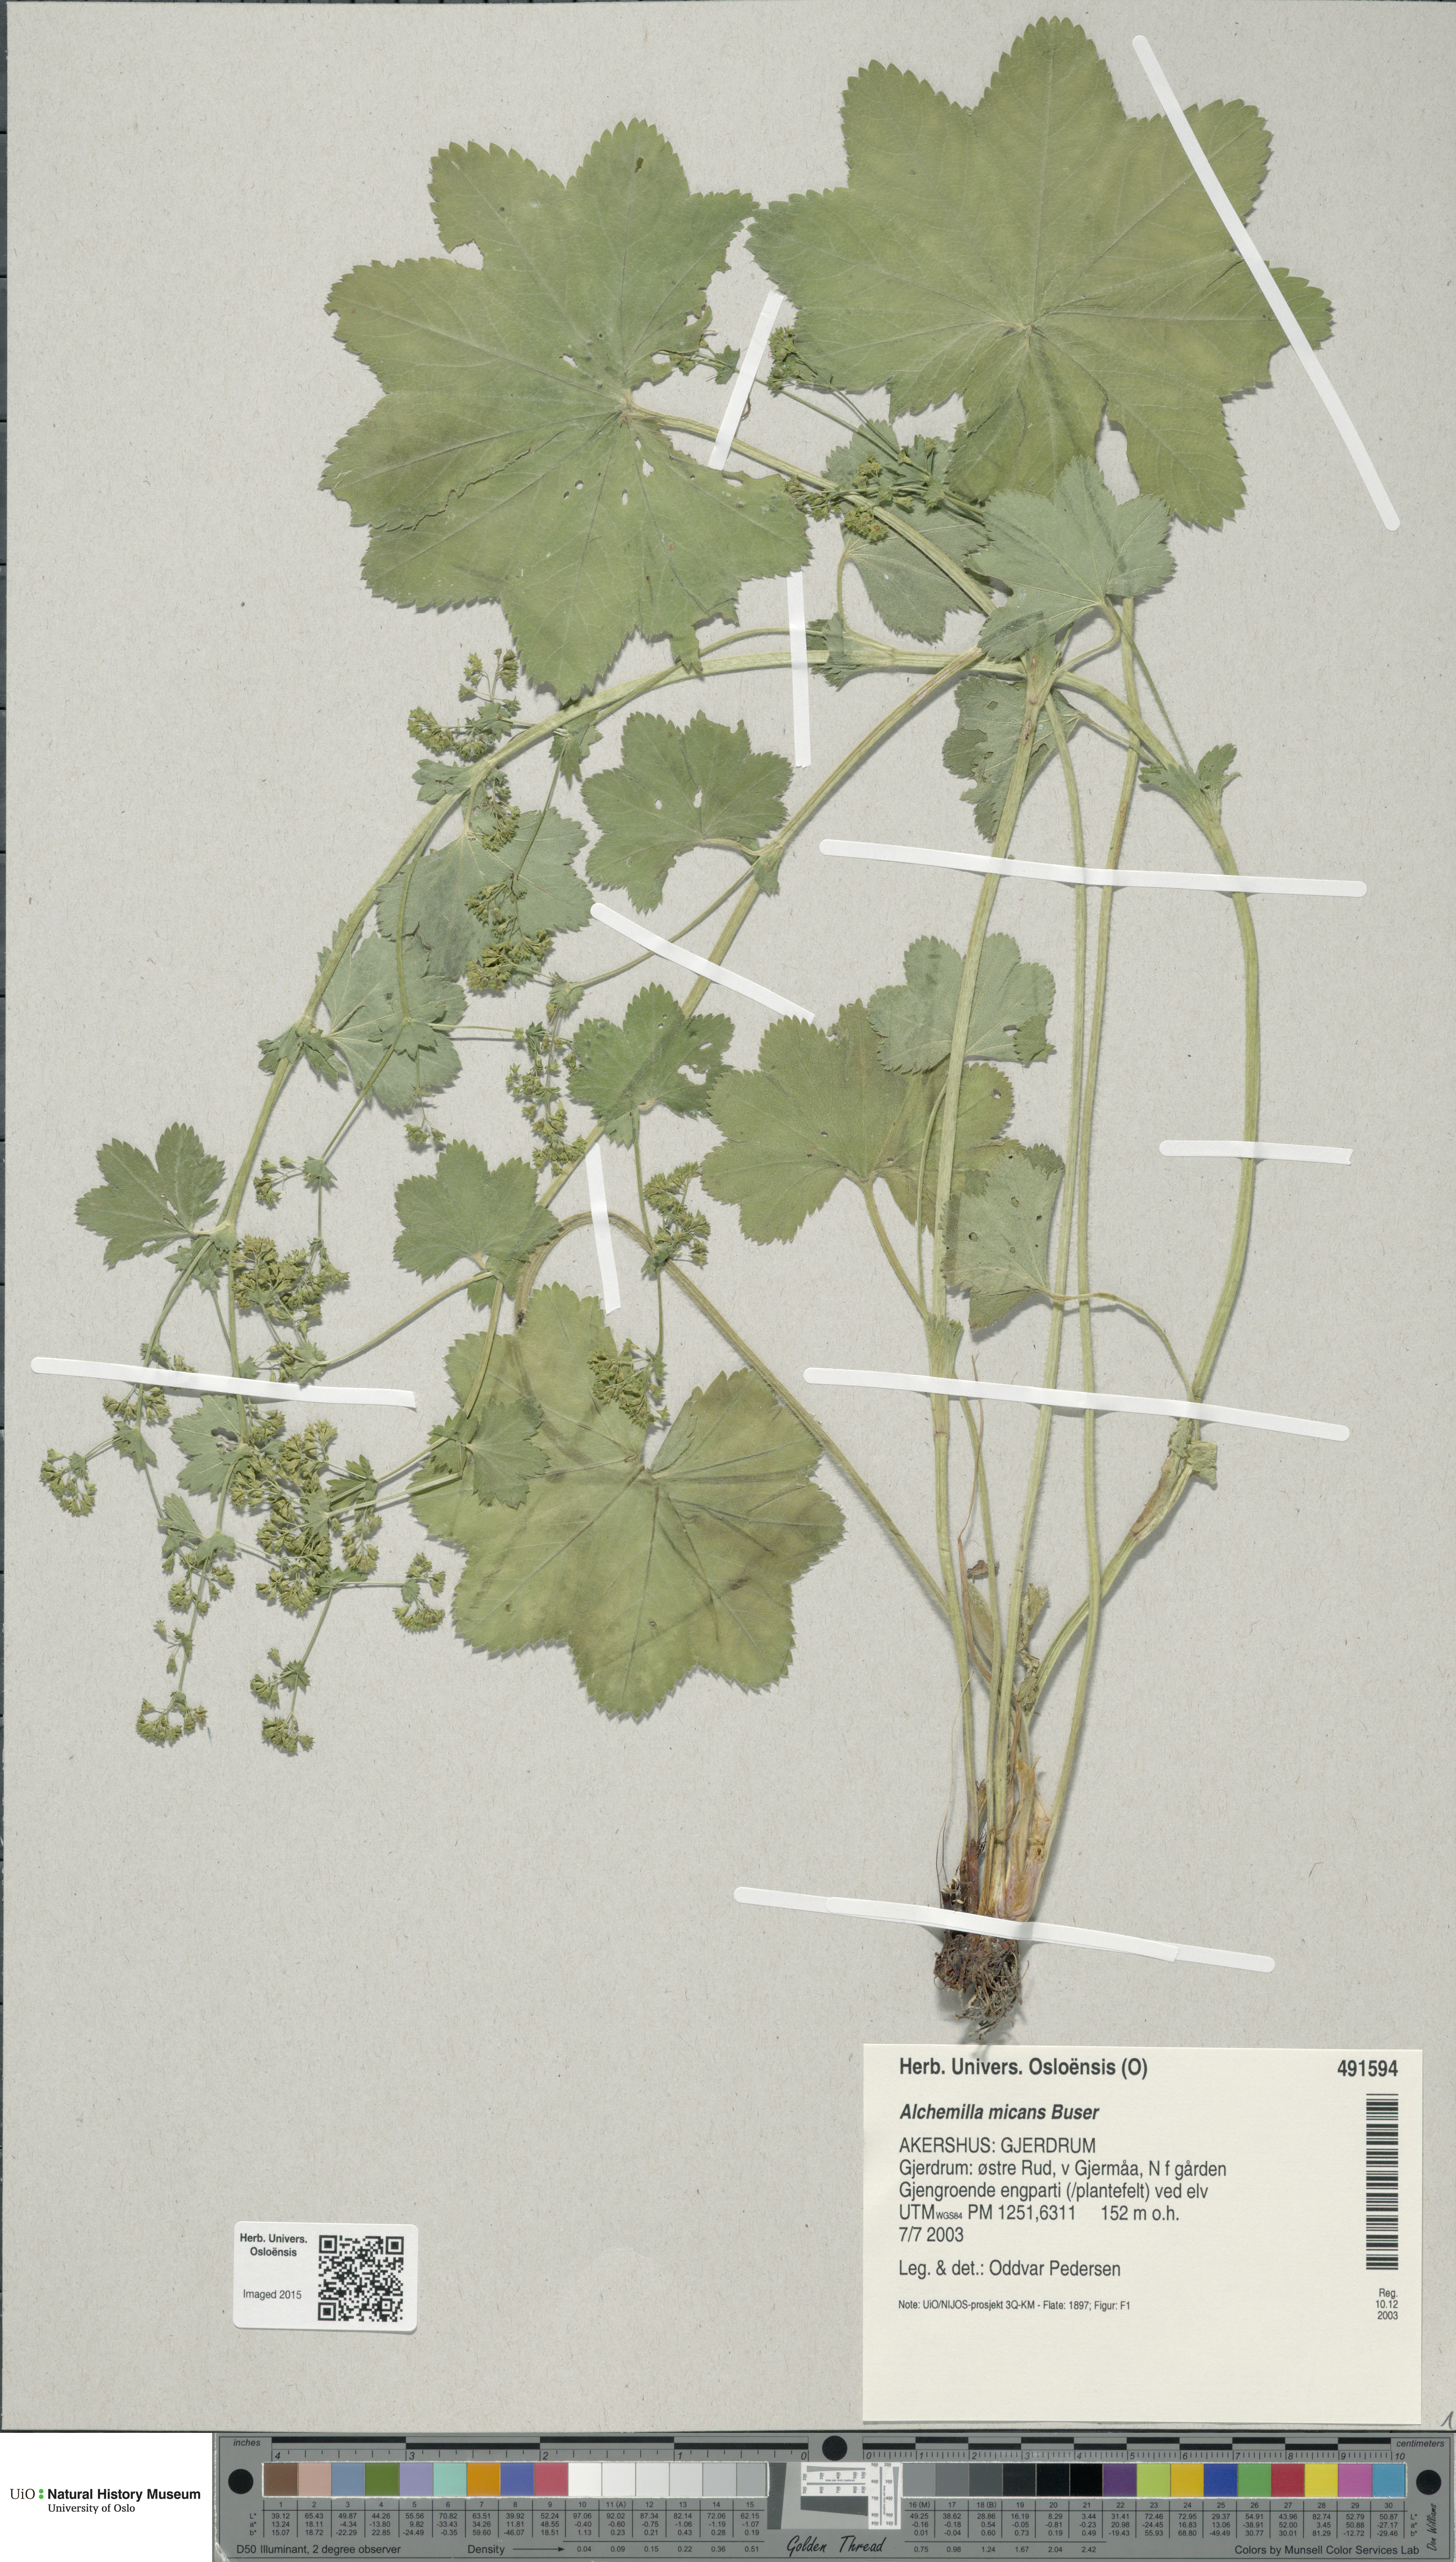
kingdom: Plantae
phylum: Tracheophyta
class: Magnoliopsida
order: Rosales
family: Rosaceae
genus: Alchemilla
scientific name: Alchemilla micans
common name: Gleaming lady's mantle
